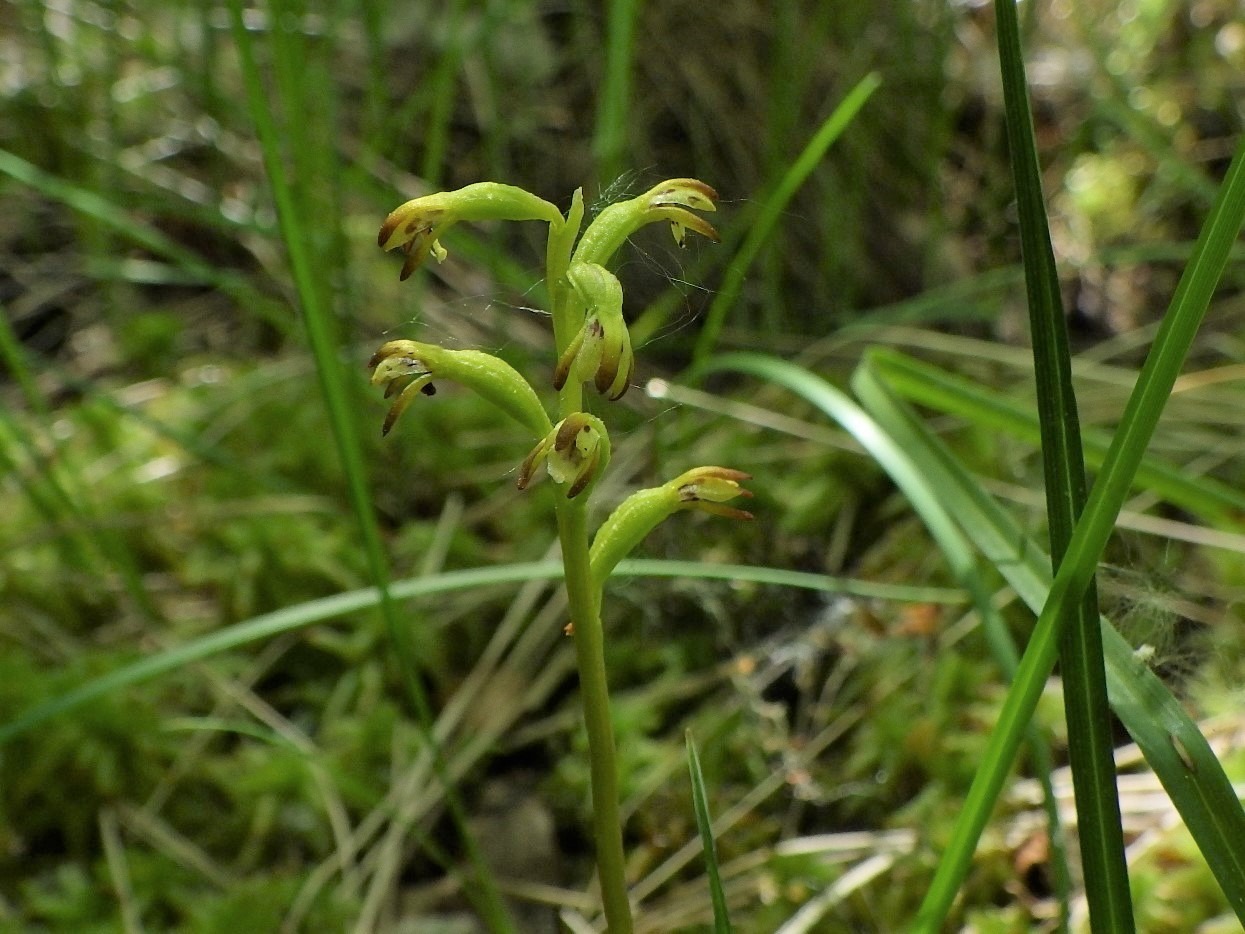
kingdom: Plantae
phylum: Tracheophyta
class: Liliopsida
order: Asparagales
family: Orchidaceae
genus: Corallorhiza
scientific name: Corallorhiza trifida
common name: Koralrod
